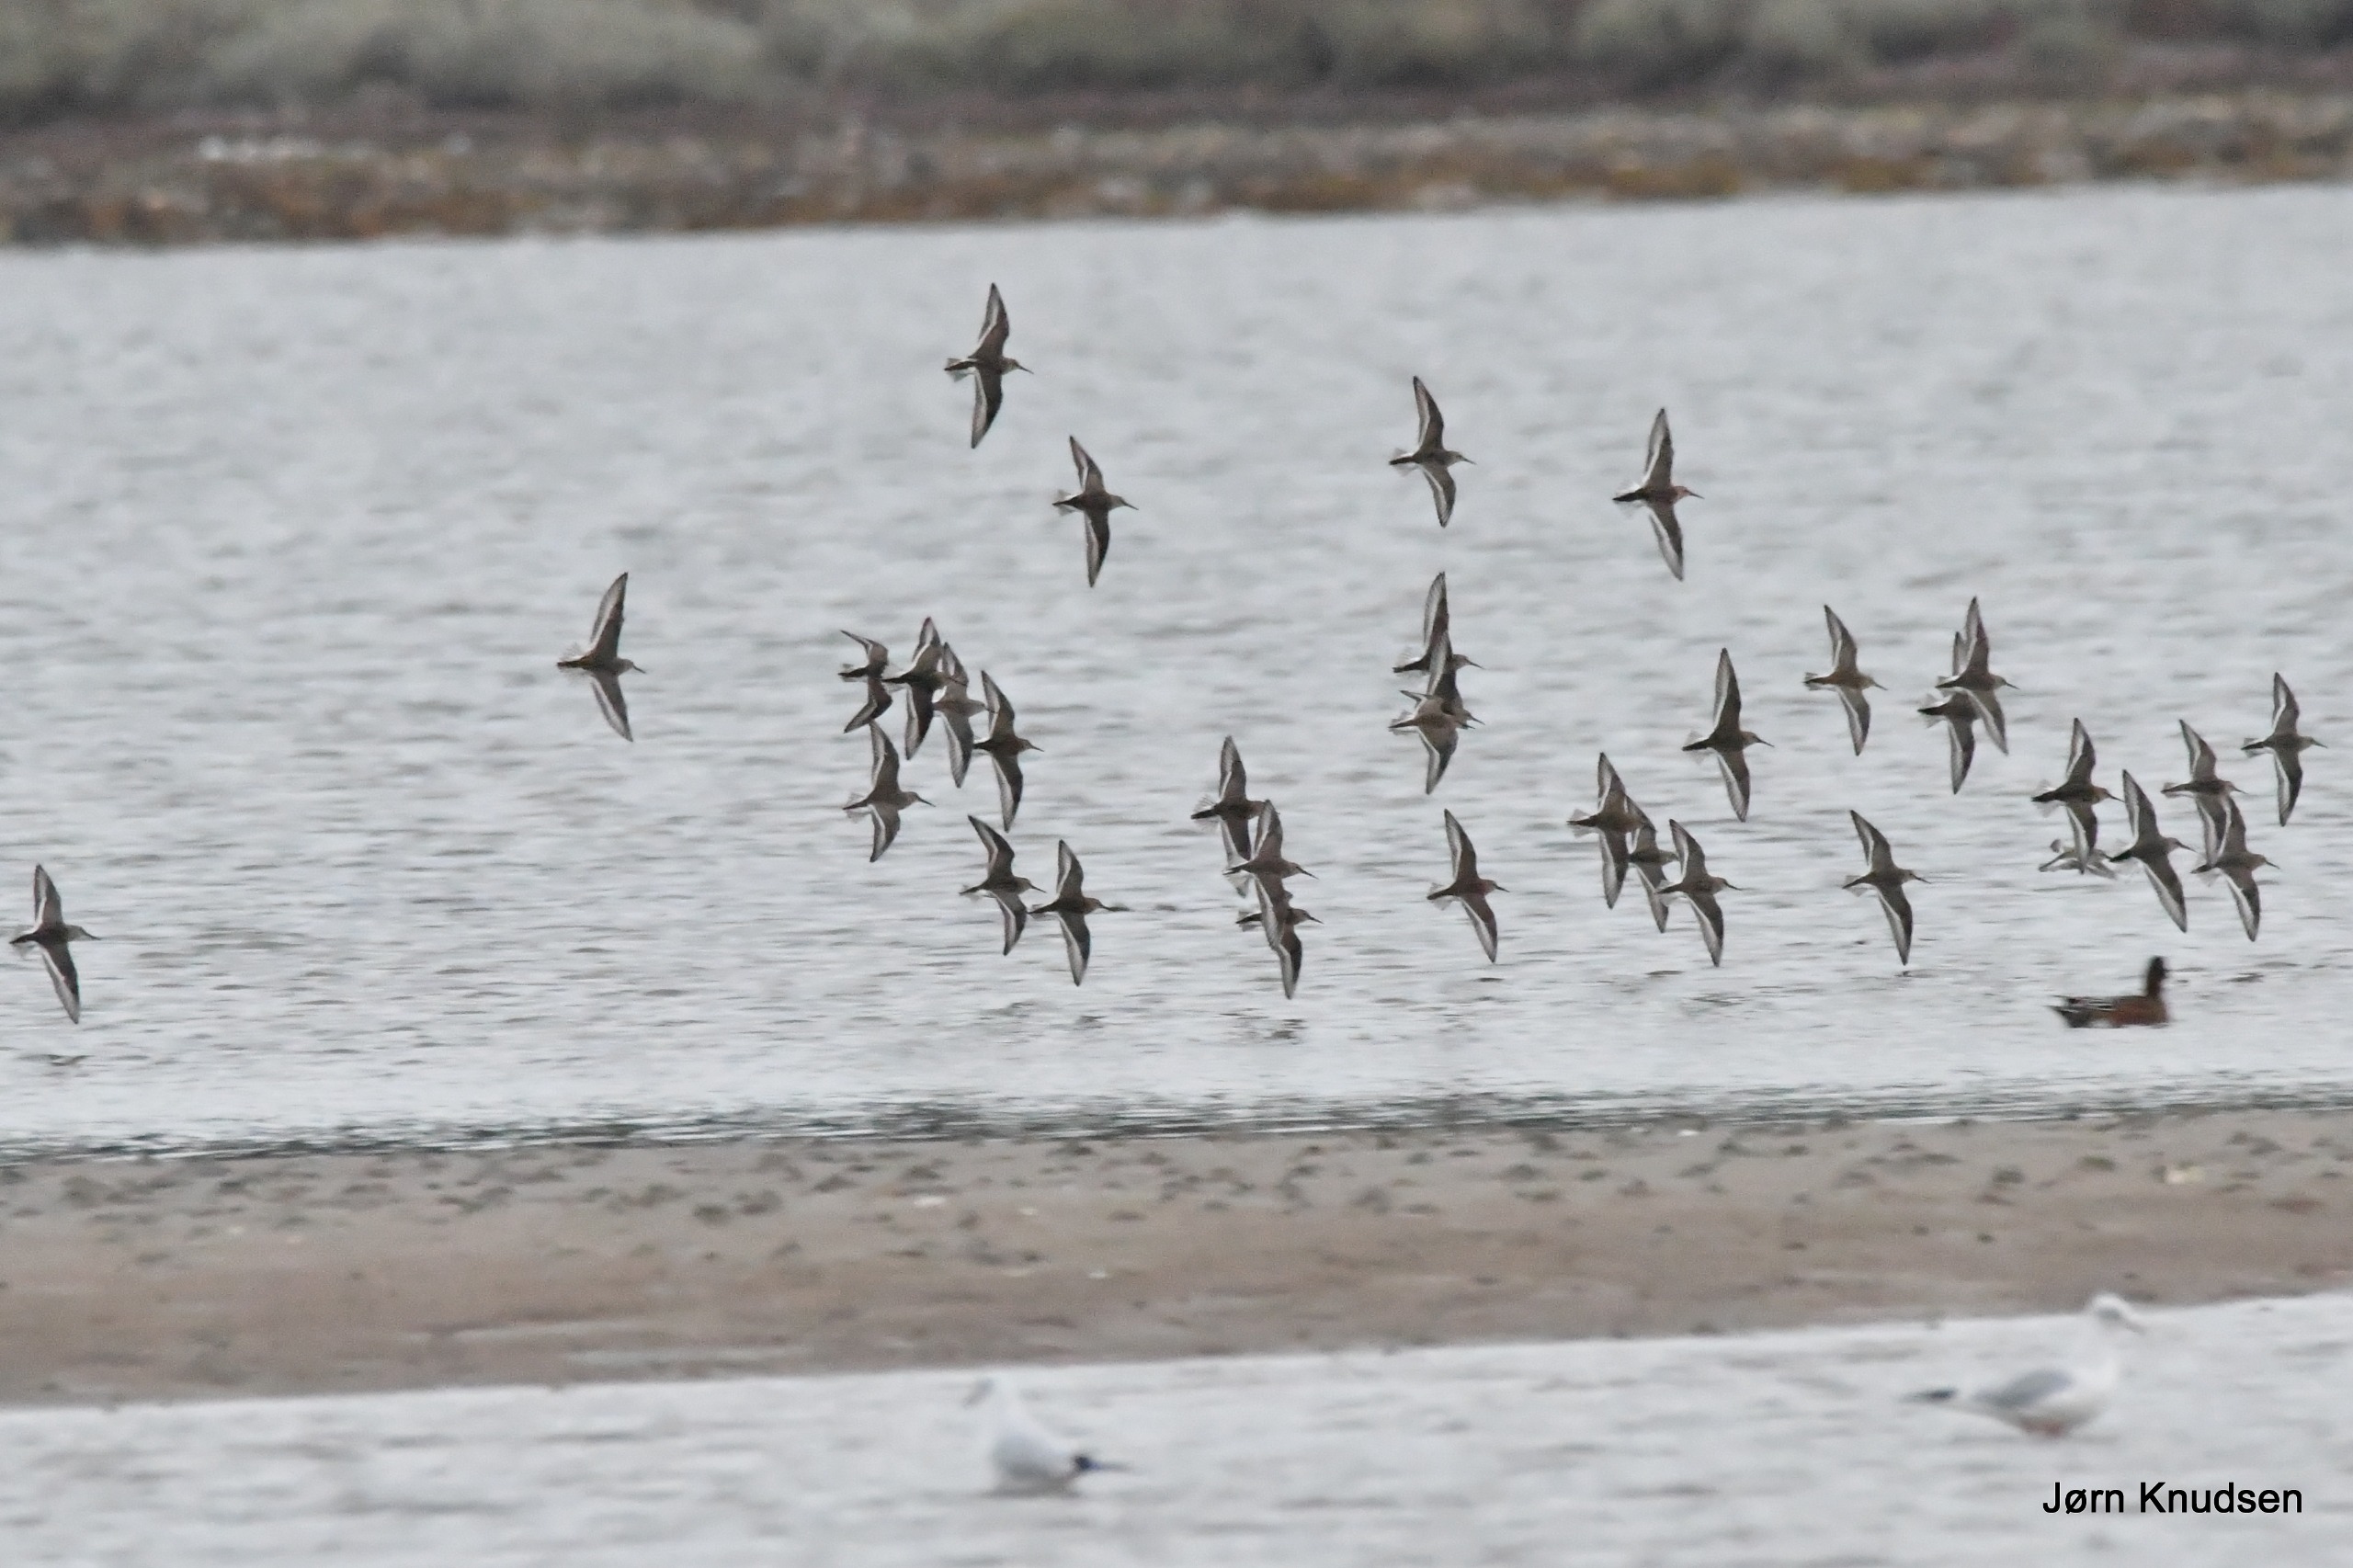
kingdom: Animalia
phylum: Chordata
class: Aves
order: Charadriiformes
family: Scolopacidae
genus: Calidris
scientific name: Calidris alpina
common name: Almindelig ryle
